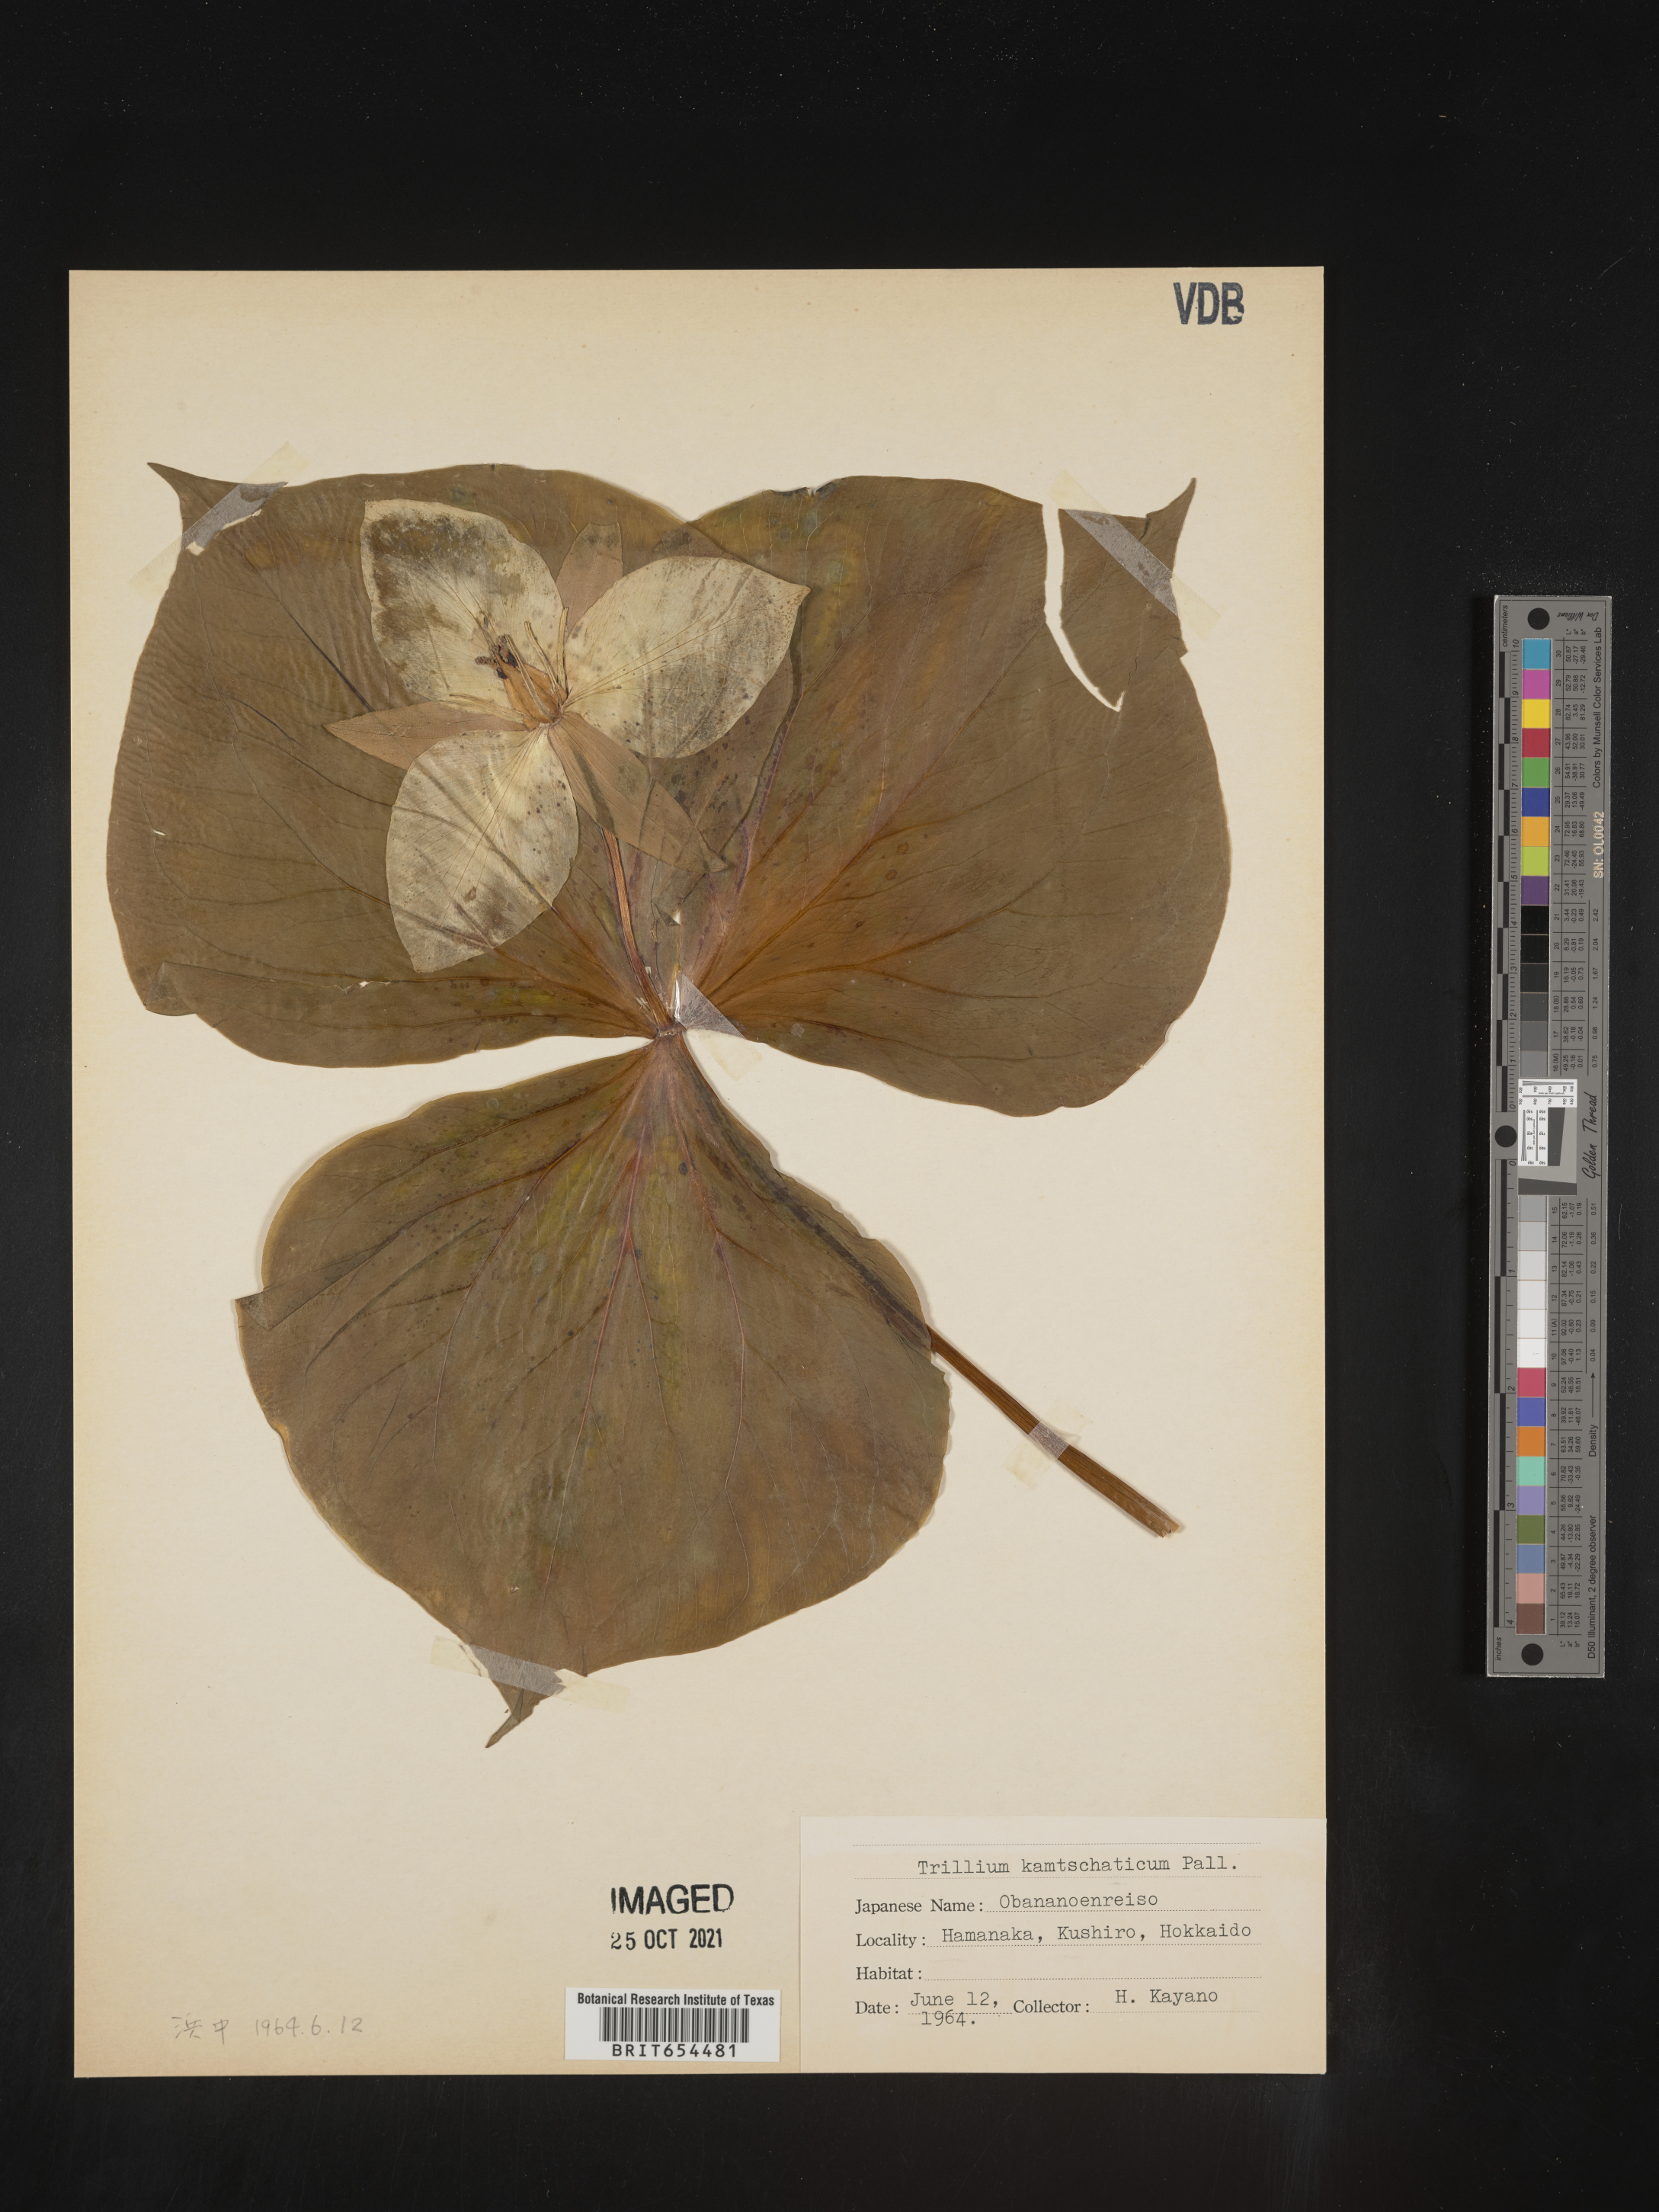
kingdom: Plantae
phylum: Tracheophyta
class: Liliopsida
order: Liliales
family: Melanthiaceae
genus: Trillium
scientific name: Trillium
